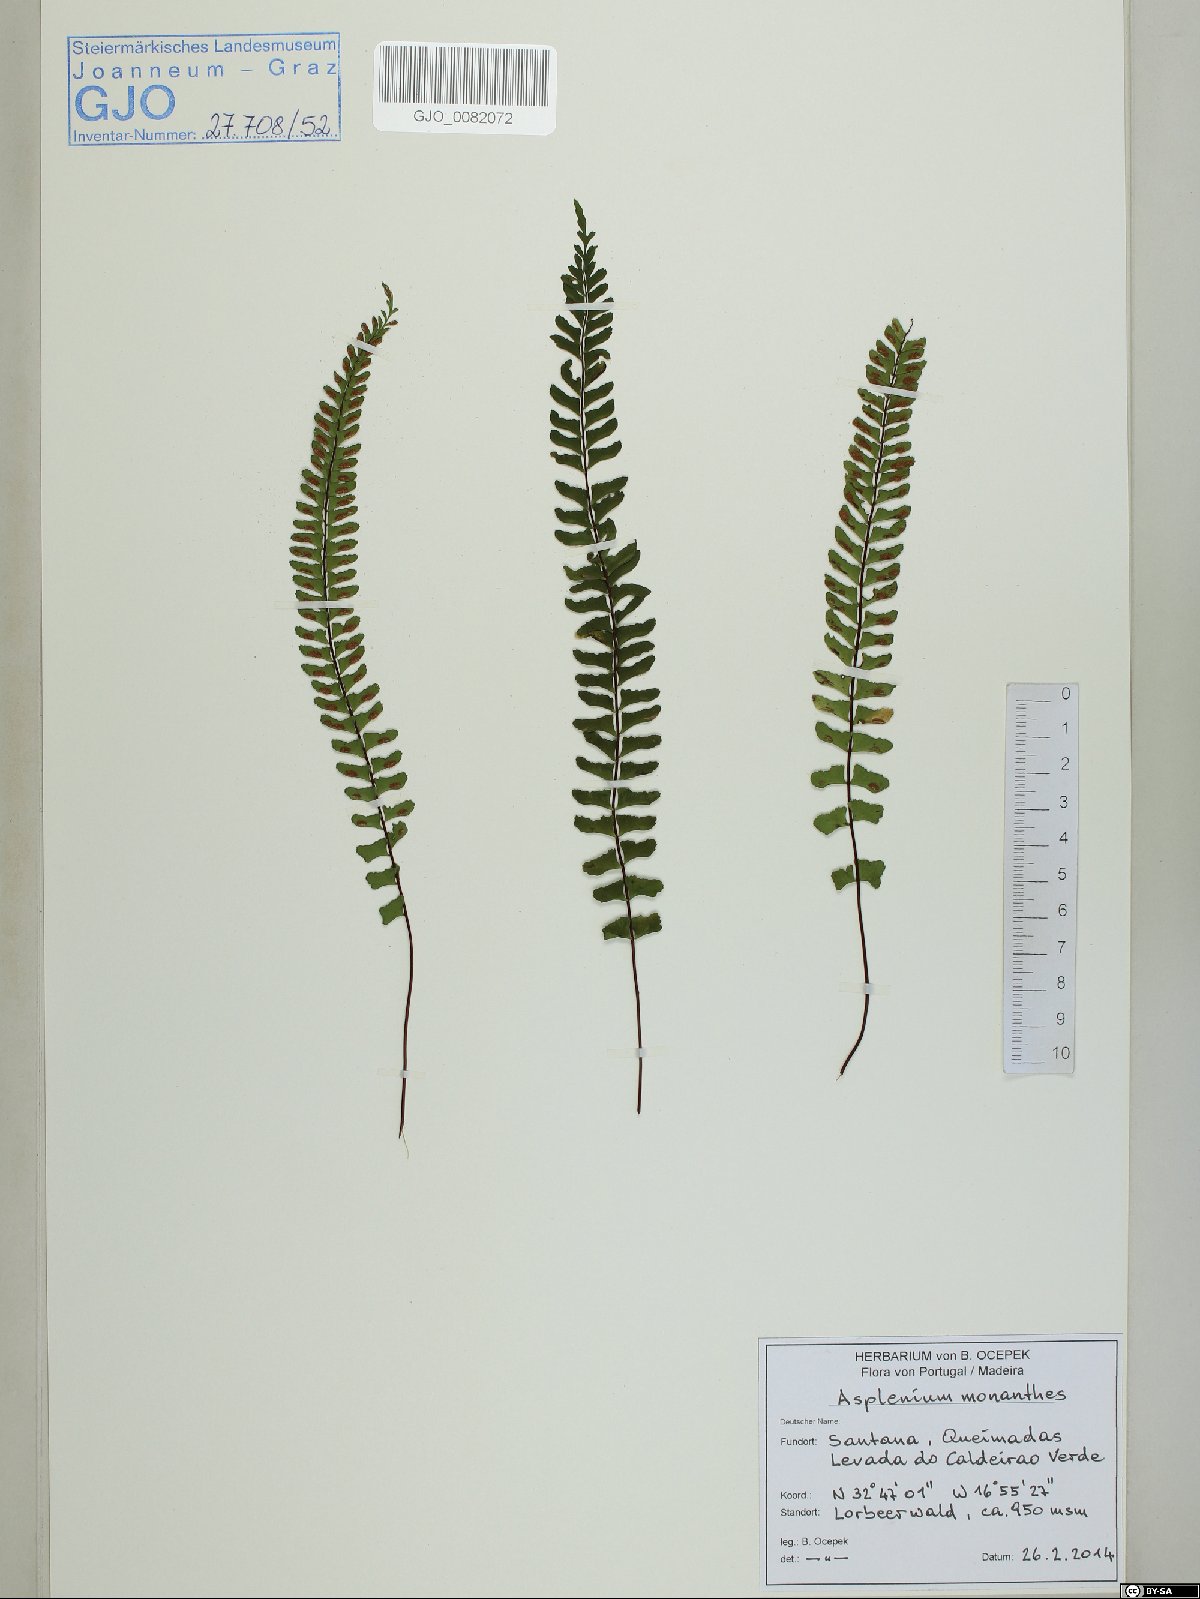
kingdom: Plantae
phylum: Tracheophyta
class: Polypodiopsida
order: Polypodiales
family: Aspleniaceae
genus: Asplenium
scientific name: Asplenium monanthes
